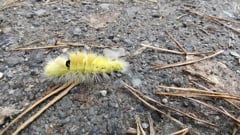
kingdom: Animalia
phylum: Arthropoda
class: Insecta
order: Lepidoptera
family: Erebidae
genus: Calliteara
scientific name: Calliteara pudibunda
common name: Pale tussock
